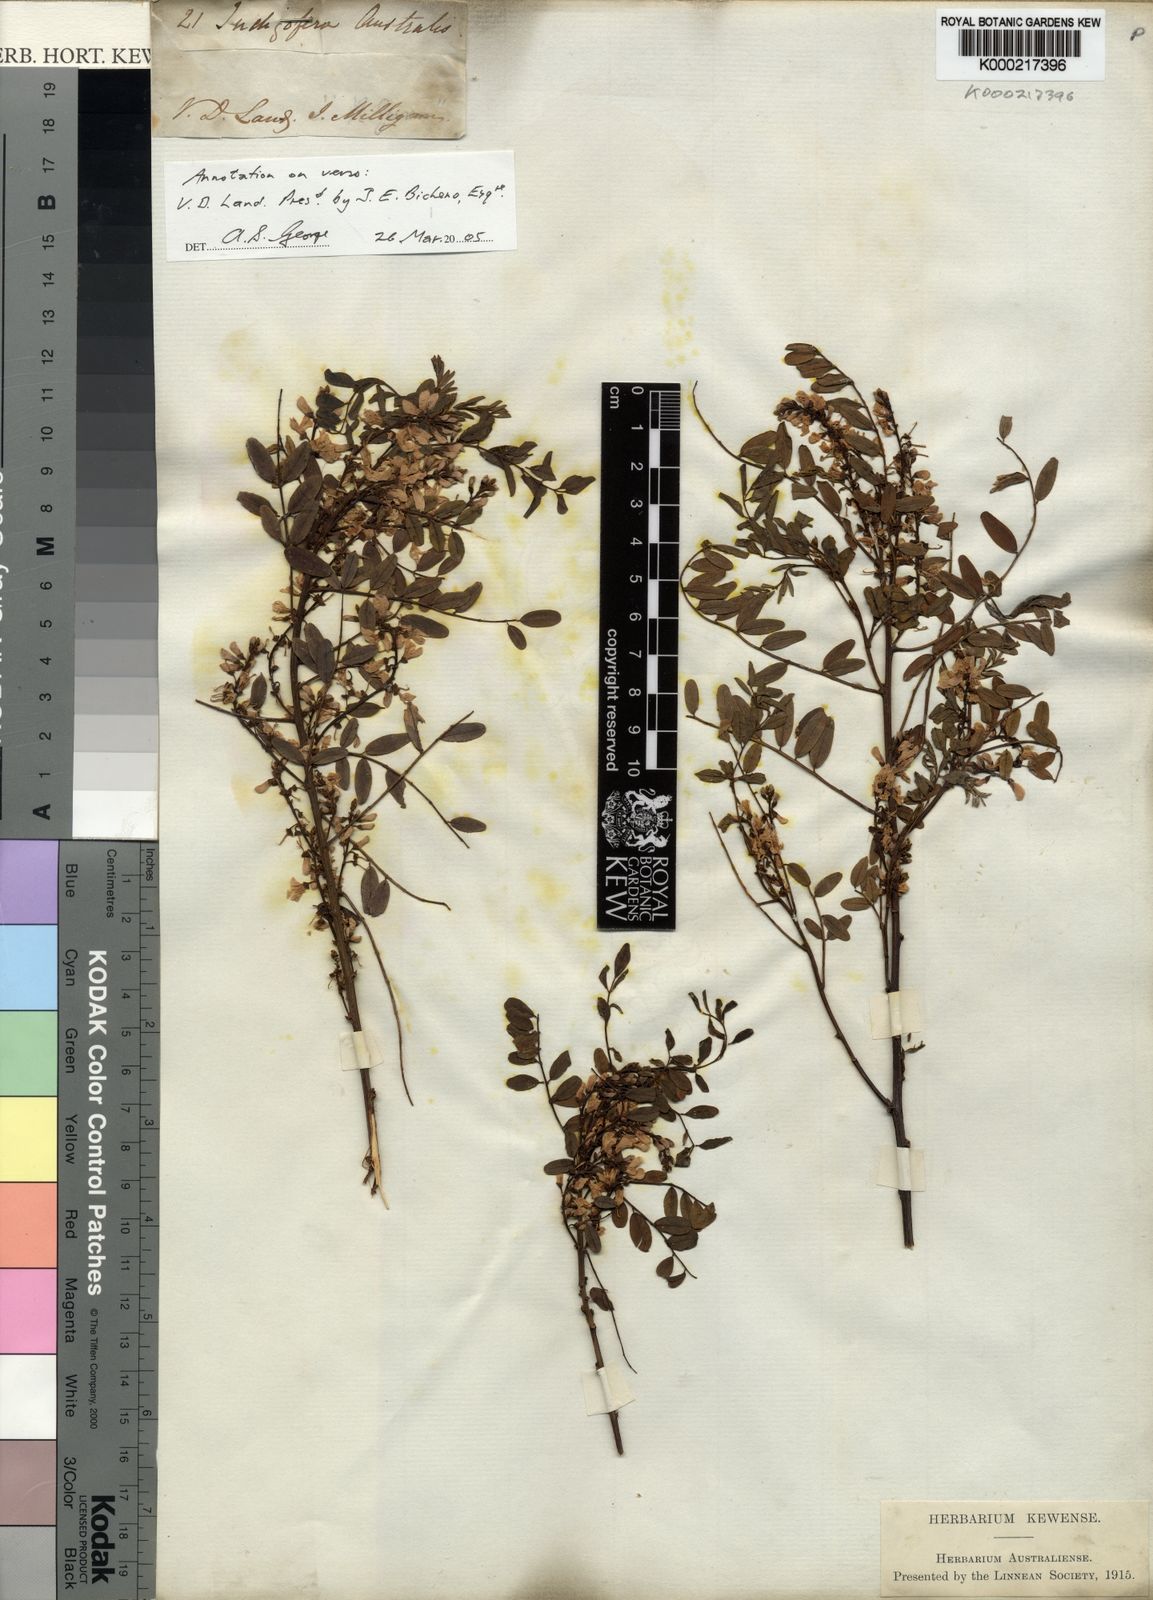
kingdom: Plantae
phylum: Tracheophyta
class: Magnoliopsida
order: Fabales
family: Fabaceae
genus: Indigofera
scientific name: Indigofera australis
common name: Australian indigo
